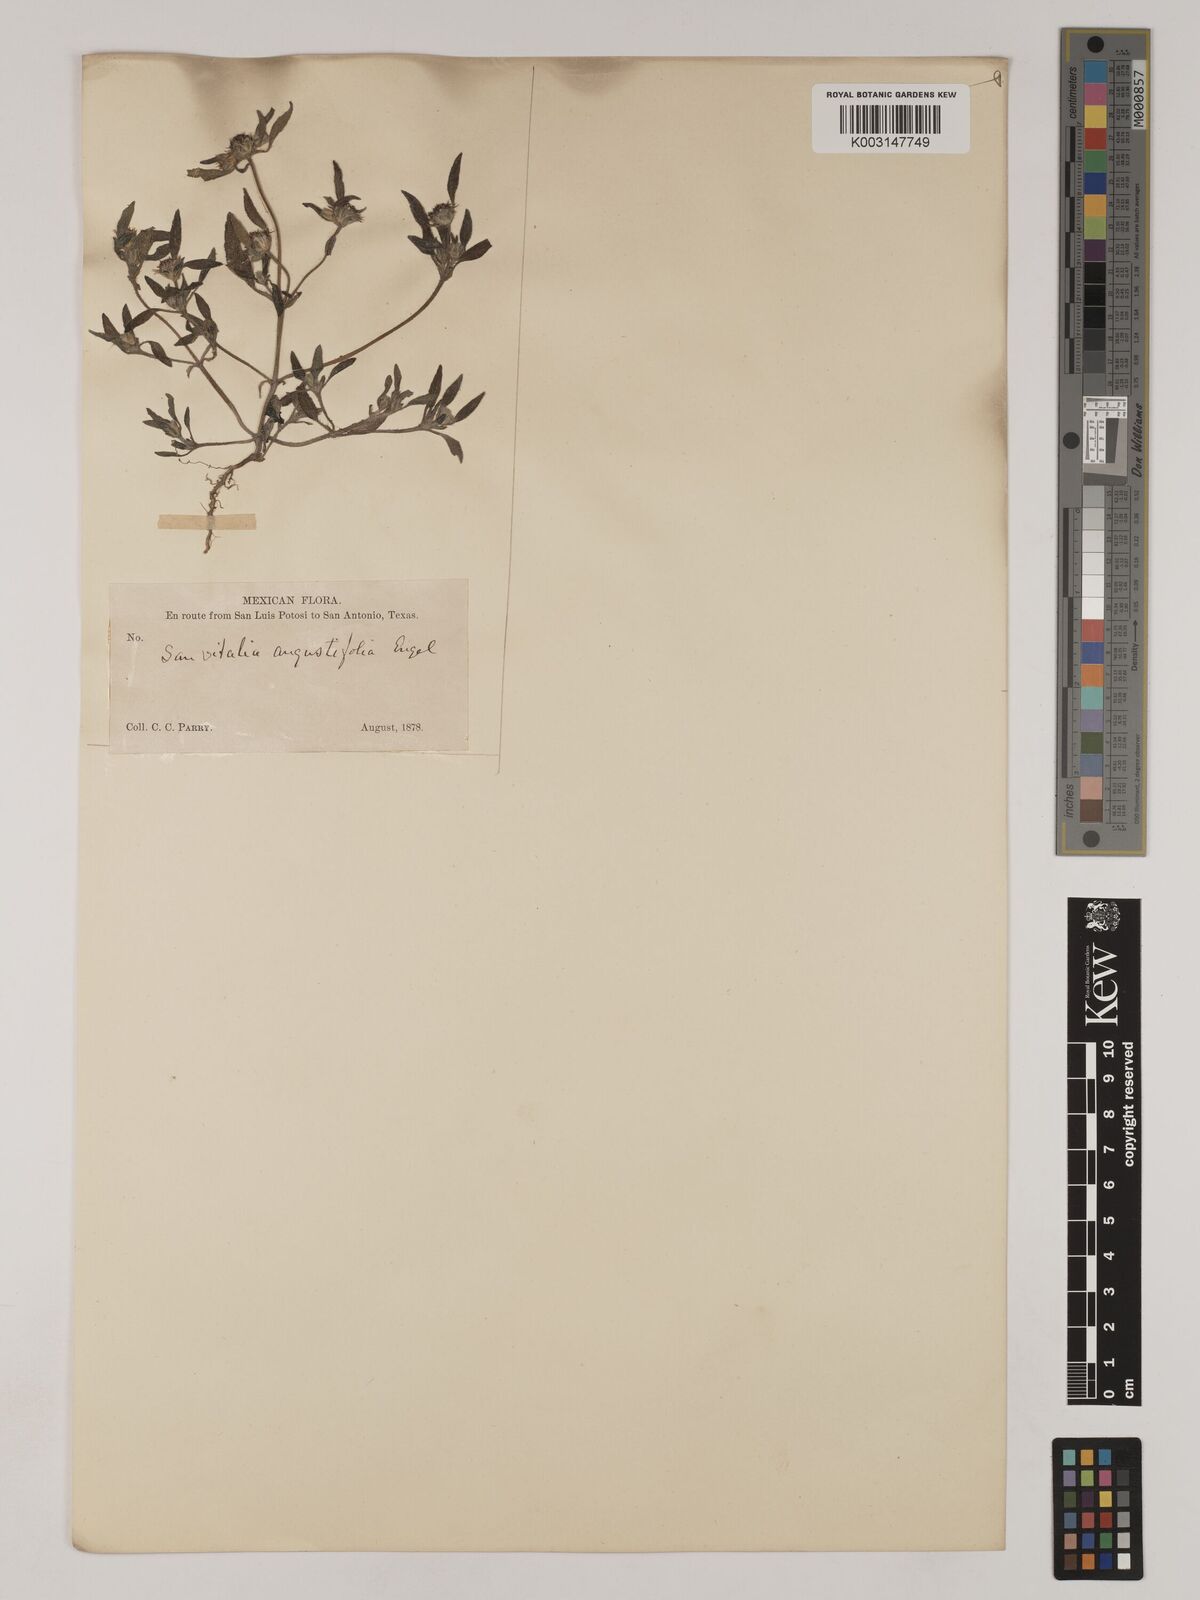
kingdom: Plantae
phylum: Tracheophyta
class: Magnoliopsida
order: Asterales
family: Asteraceae
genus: Sanvitalia
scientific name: Sanvitalia angustifolia
